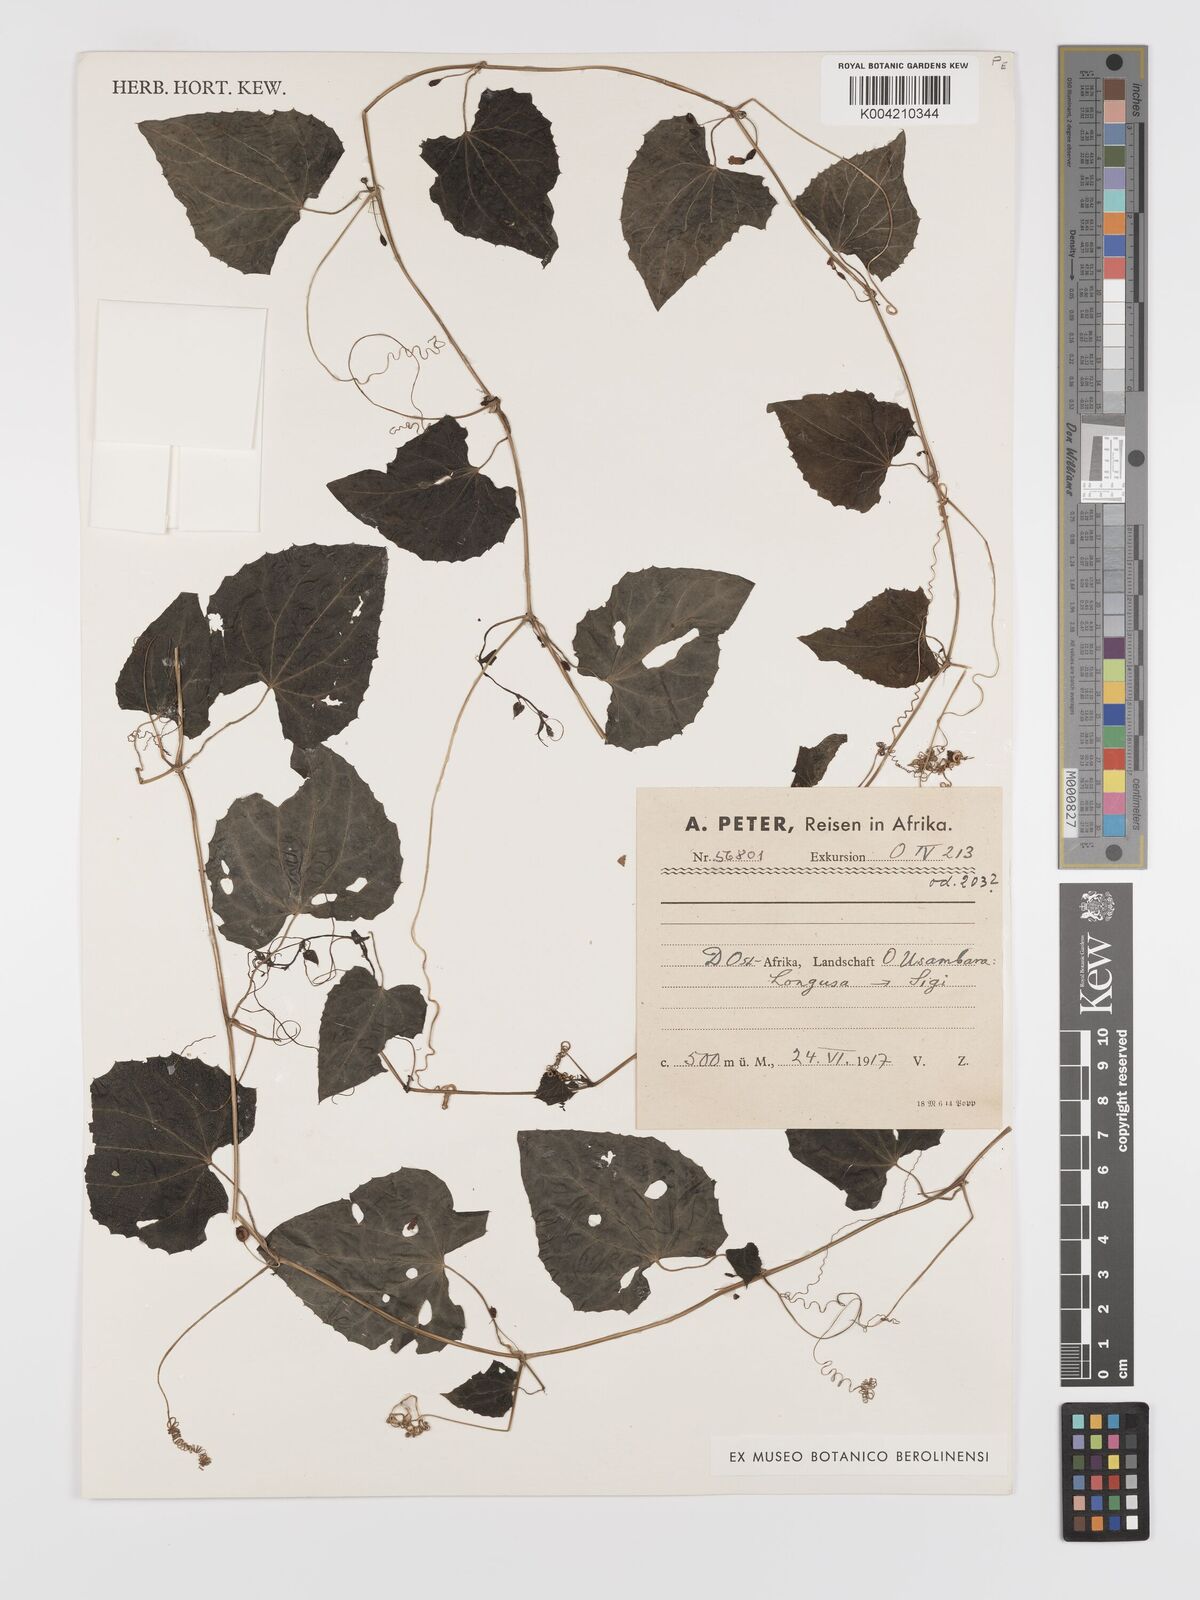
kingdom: Plantae
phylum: Tracheophyta
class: Magnoliopsida
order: Cucurbitales
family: Cucurbitaceae
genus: Zehneria
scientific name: Zehneria emirnensis
